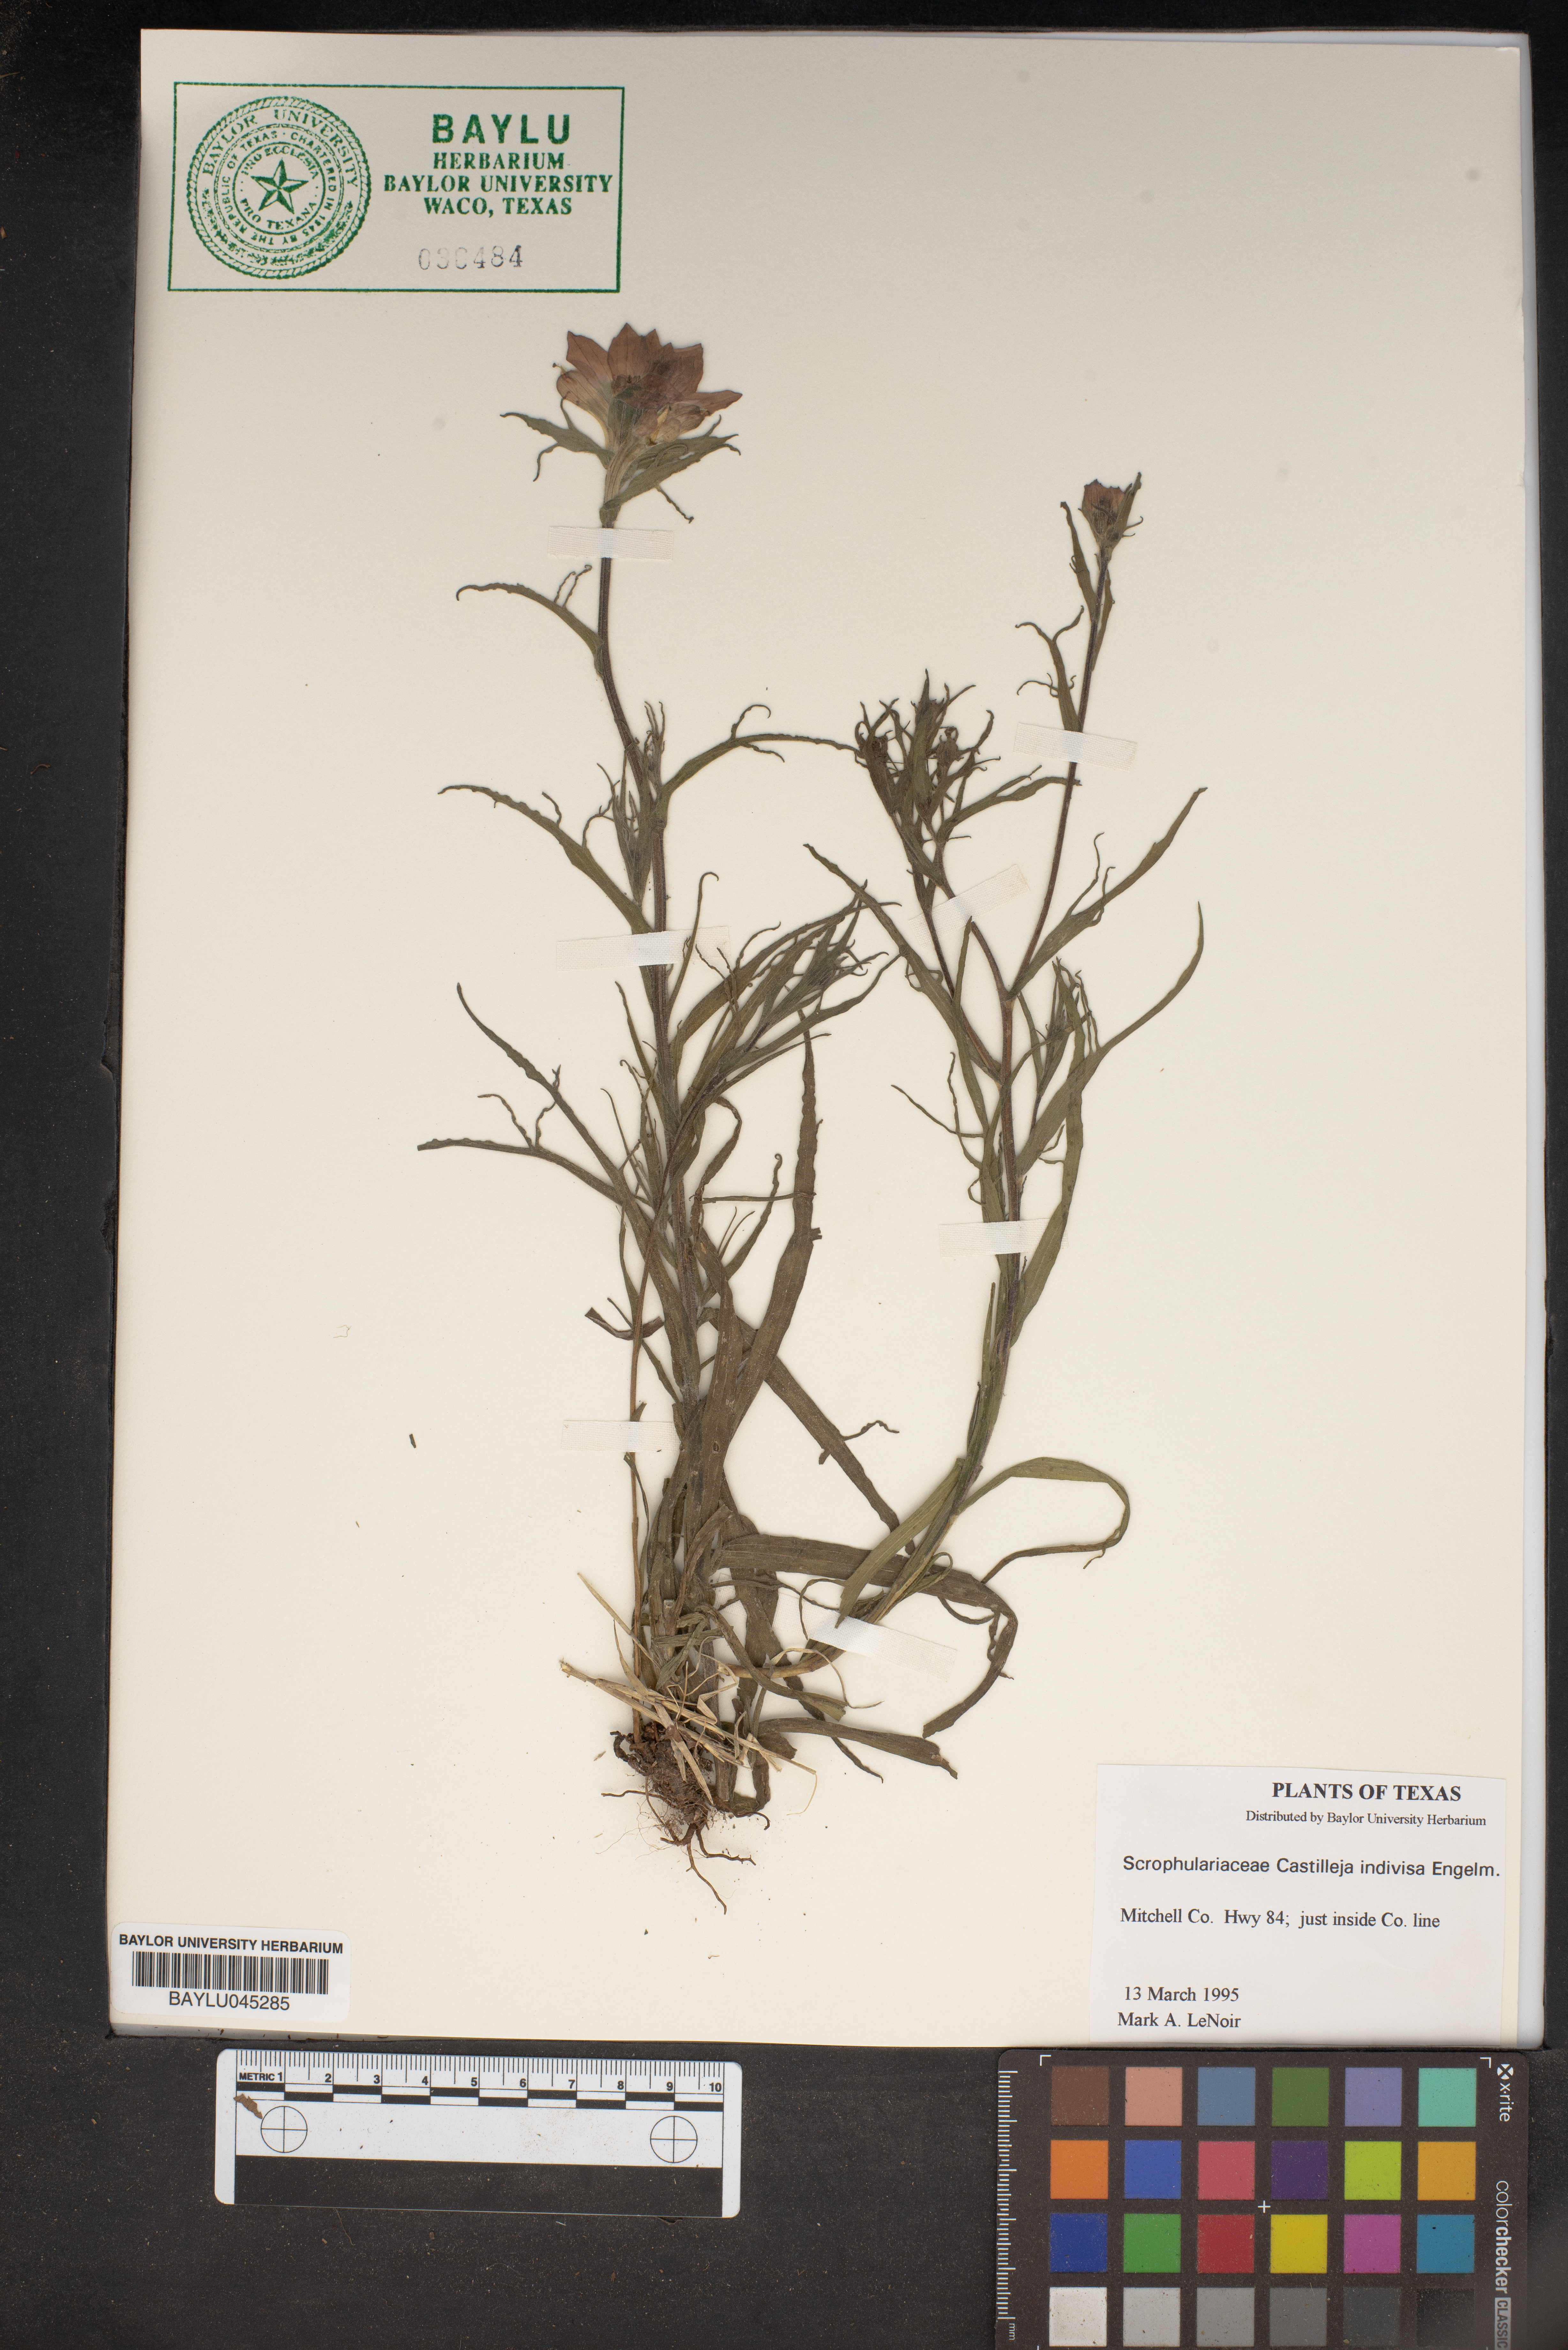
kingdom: Plantae
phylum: Tracheophyta
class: Magnoliopsida
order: Lamiales
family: Orobanchaceae
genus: Castilleja
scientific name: Castilleja indivisa
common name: Texas paintbrush
